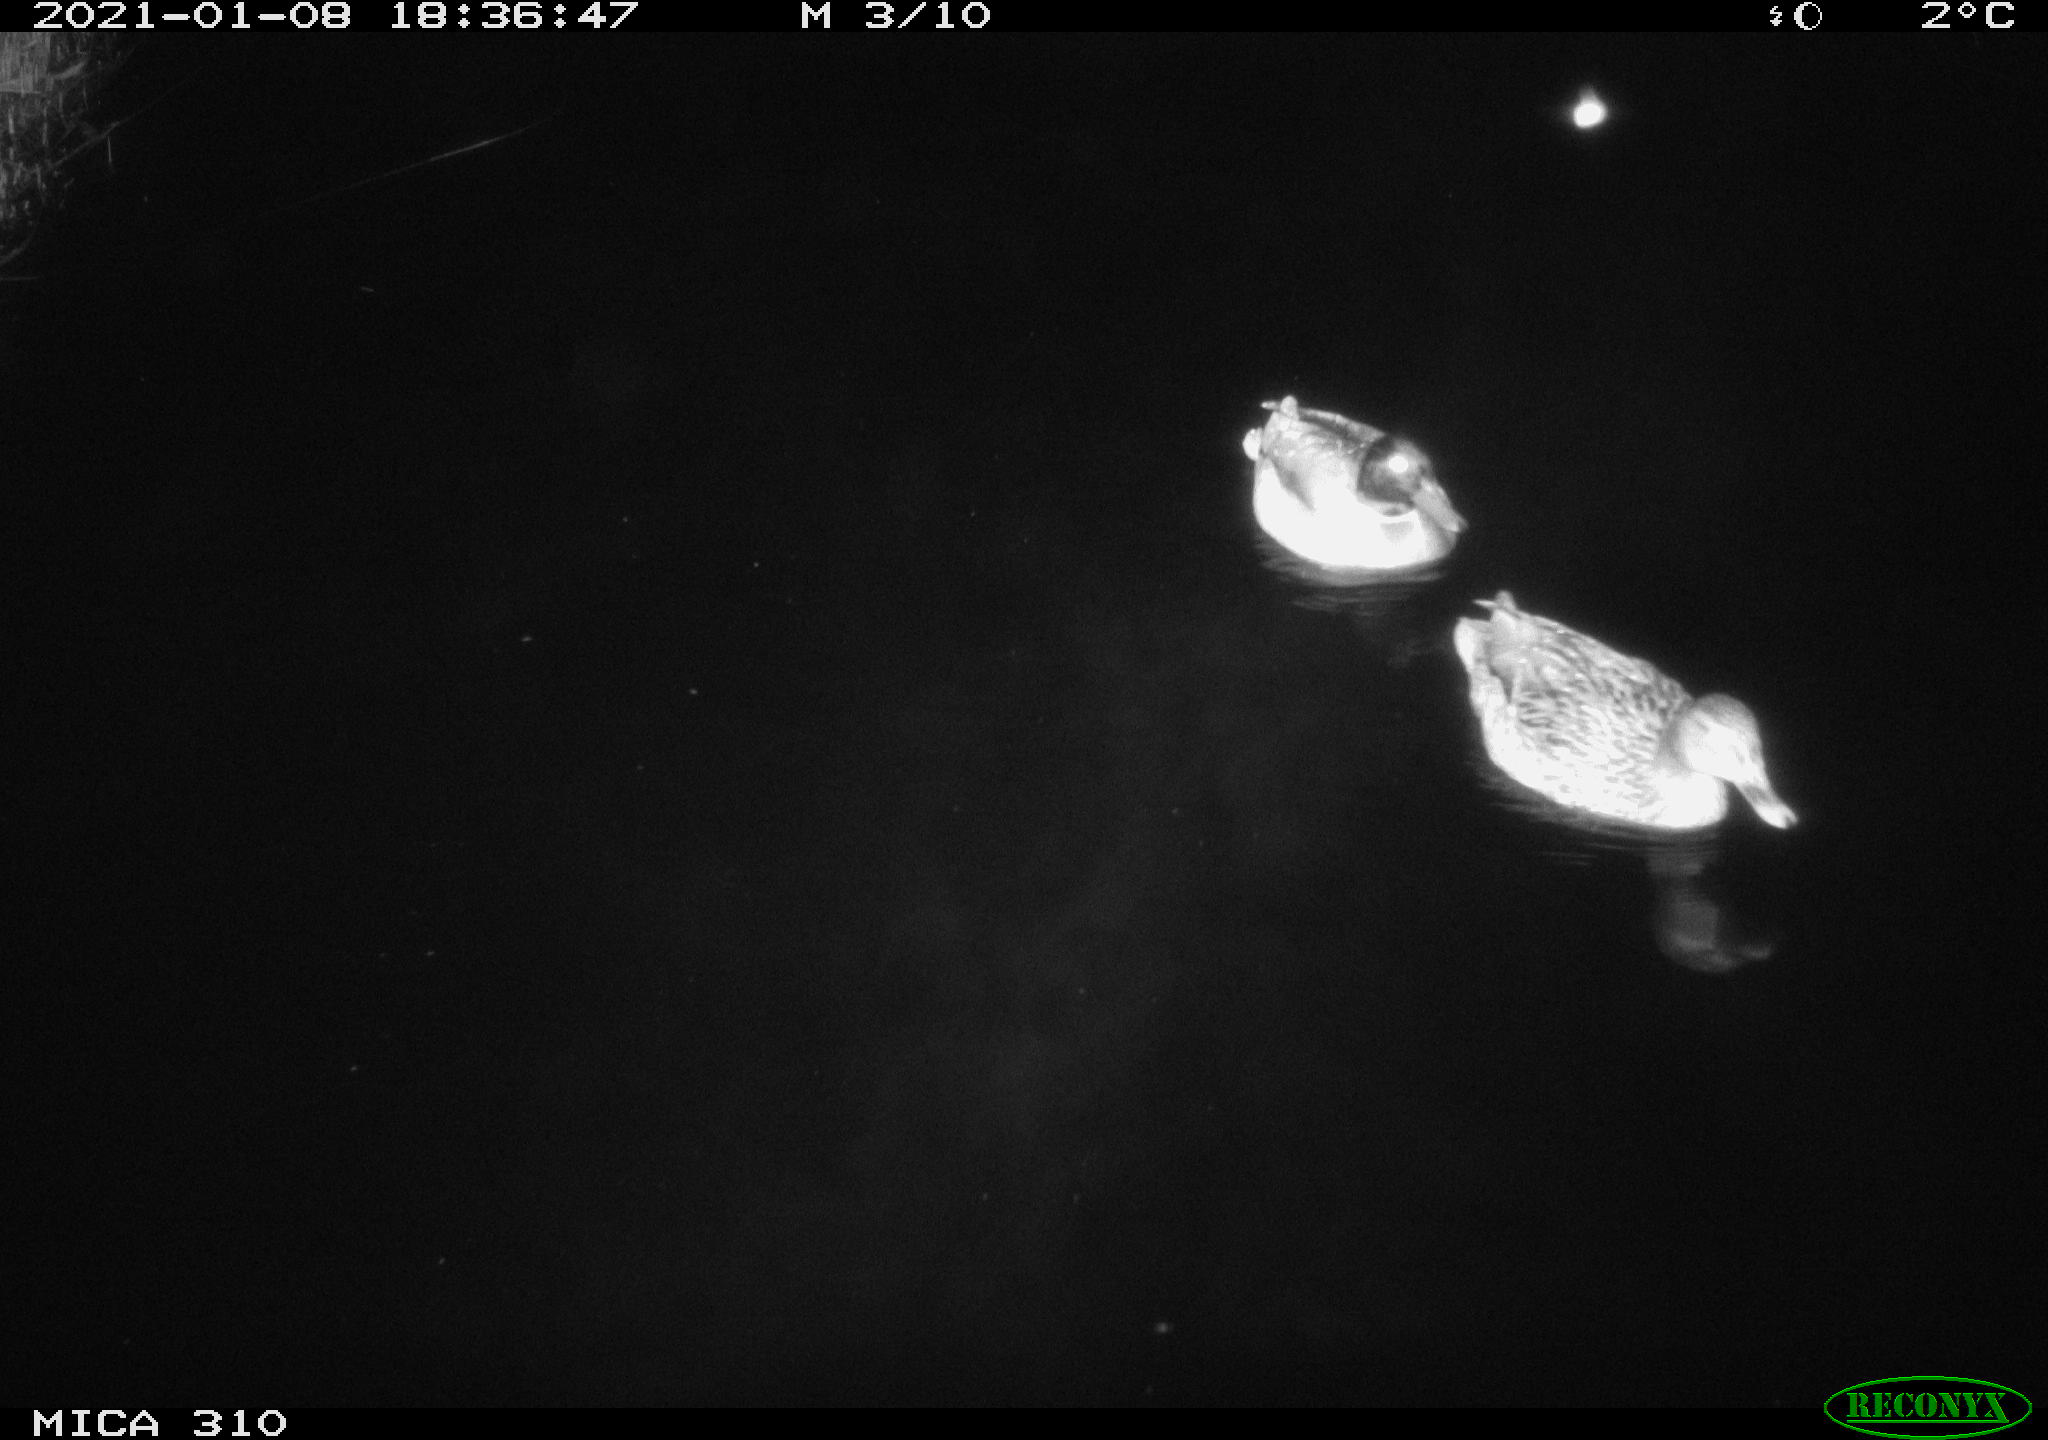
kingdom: Animalia
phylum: Chordata
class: Aves
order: Anseriformes
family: Anatidae
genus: Anas
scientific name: Anas platyrhynchos
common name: Mallard
